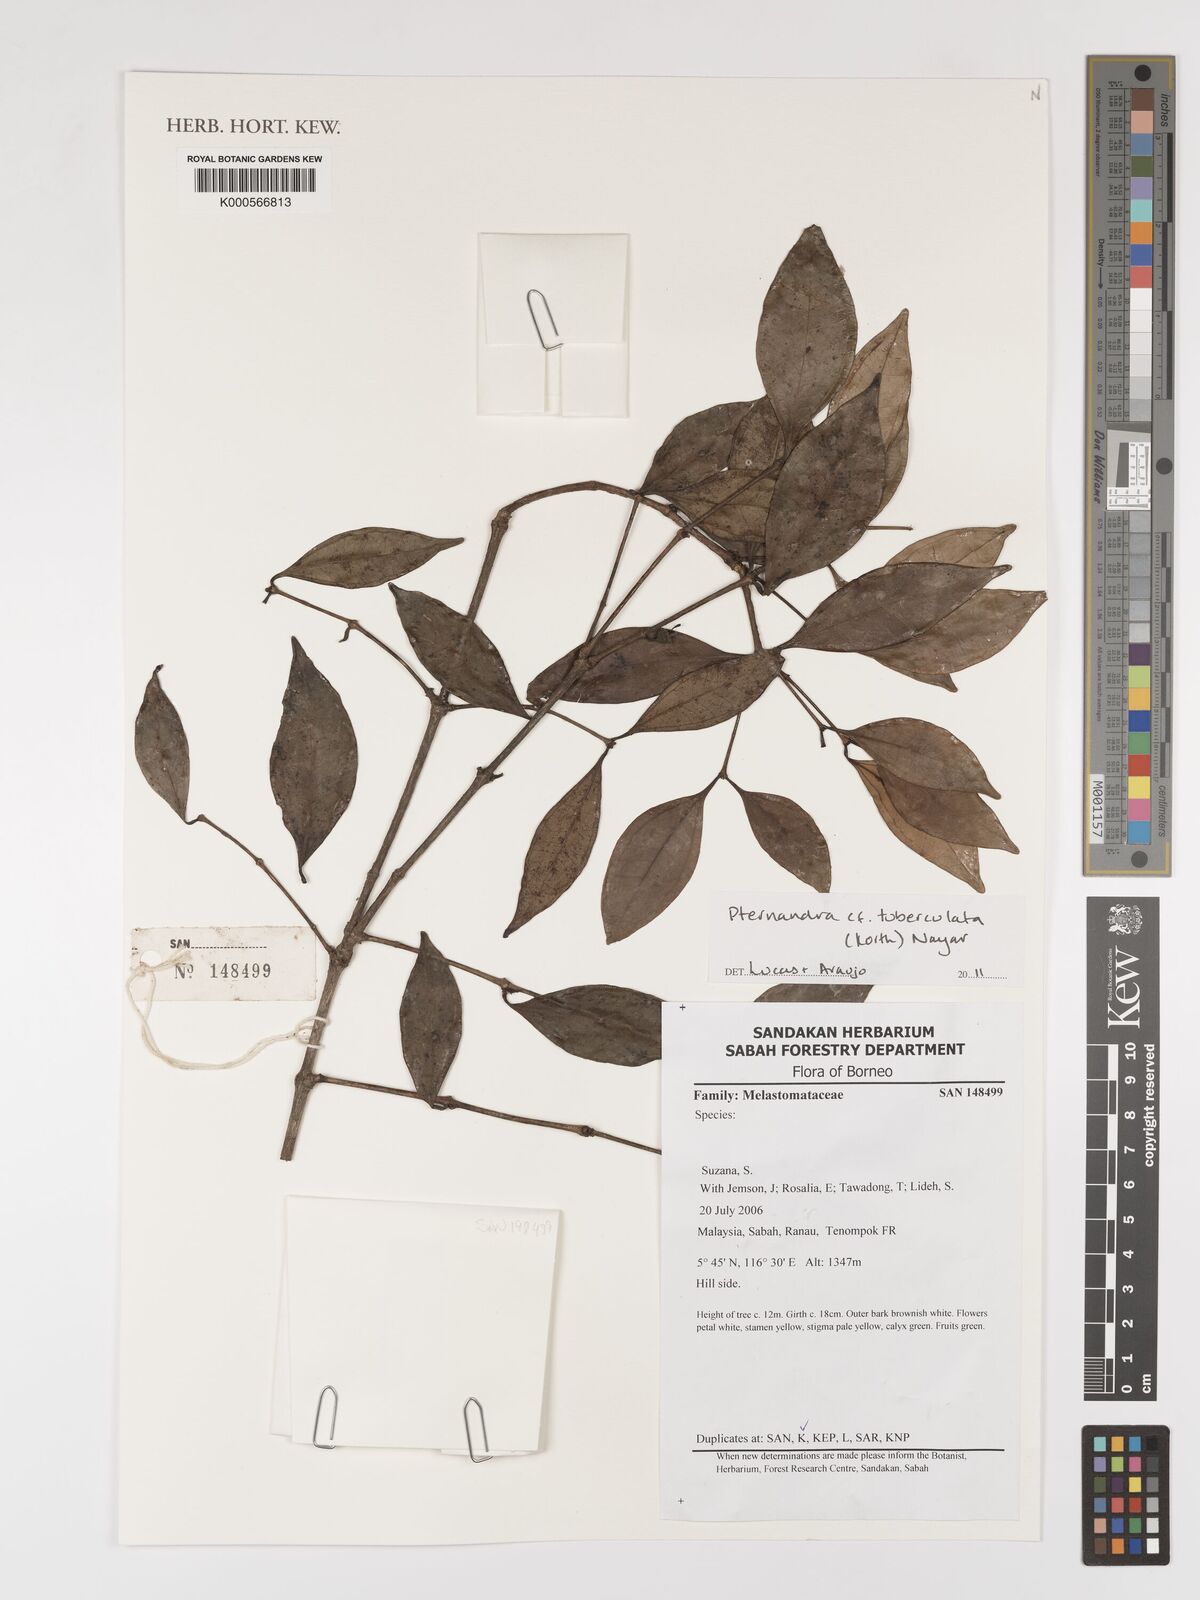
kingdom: Plantae
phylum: Tracheophyta
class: Magnoliopsida
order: Myrtales
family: Melastomataceae
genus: Pternandra
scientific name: Pternandra tuberculata
